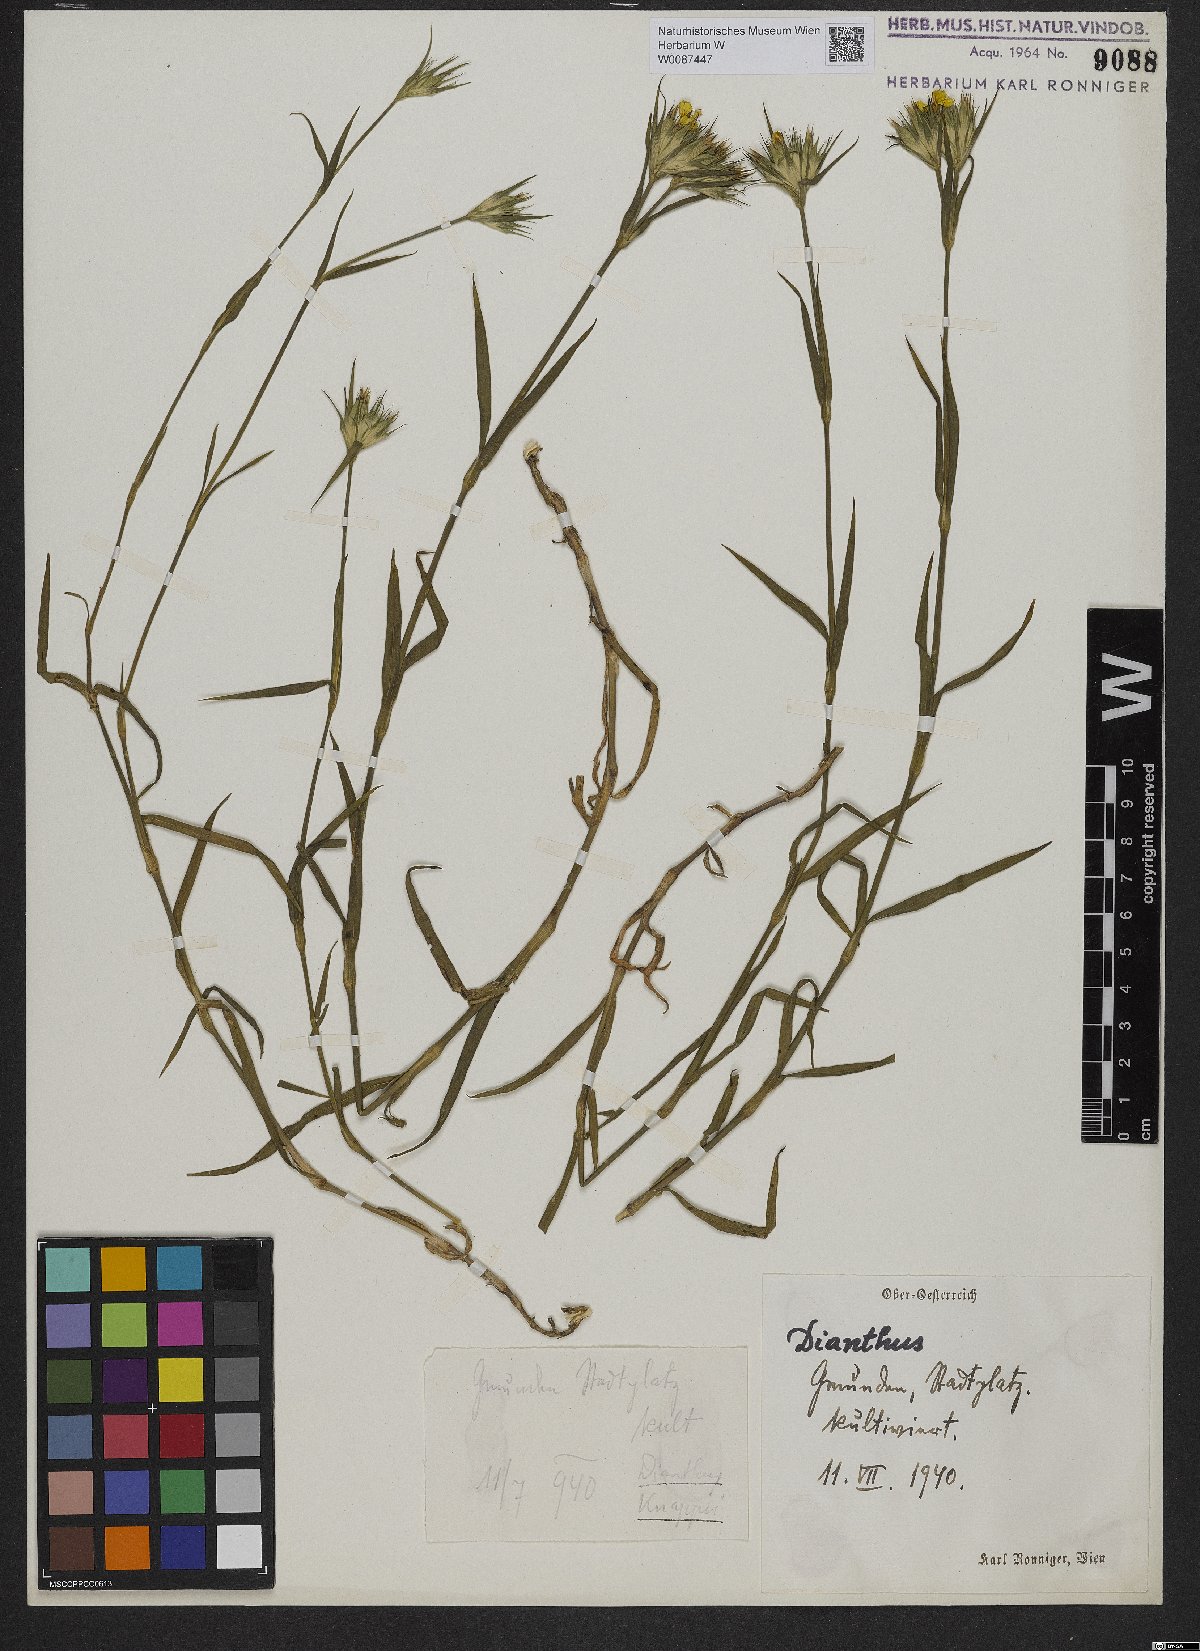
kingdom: Plantae
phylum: Tracheophyta
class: Magnoliopsida
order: Caryophyllales
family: Caryophyllaceae
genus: Dianthus
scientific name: Dianthus balbisii
